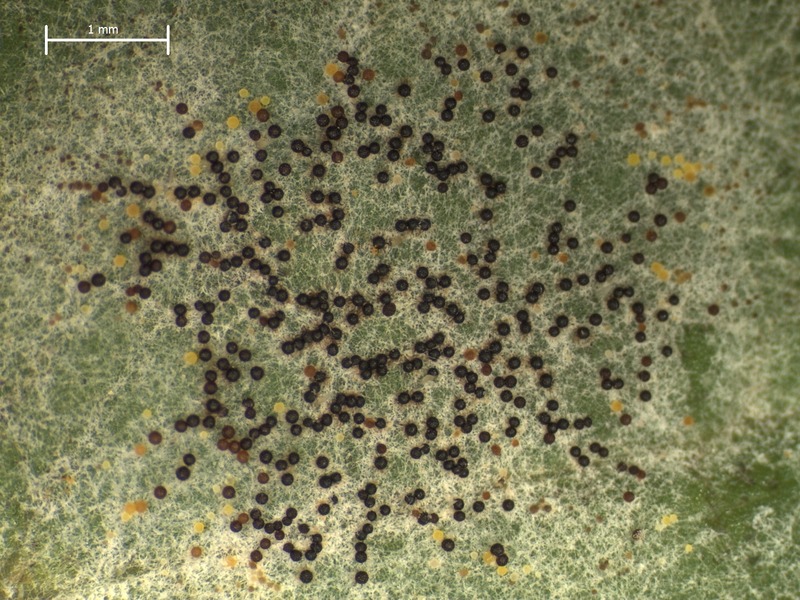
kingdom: Fungi
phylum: Ascomycota
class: Leotiomycetes
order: Helotiales
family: Erysiphaceae
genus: Erysiphe
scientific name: Erysiphe heraclei
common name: Umbellifer mildew
